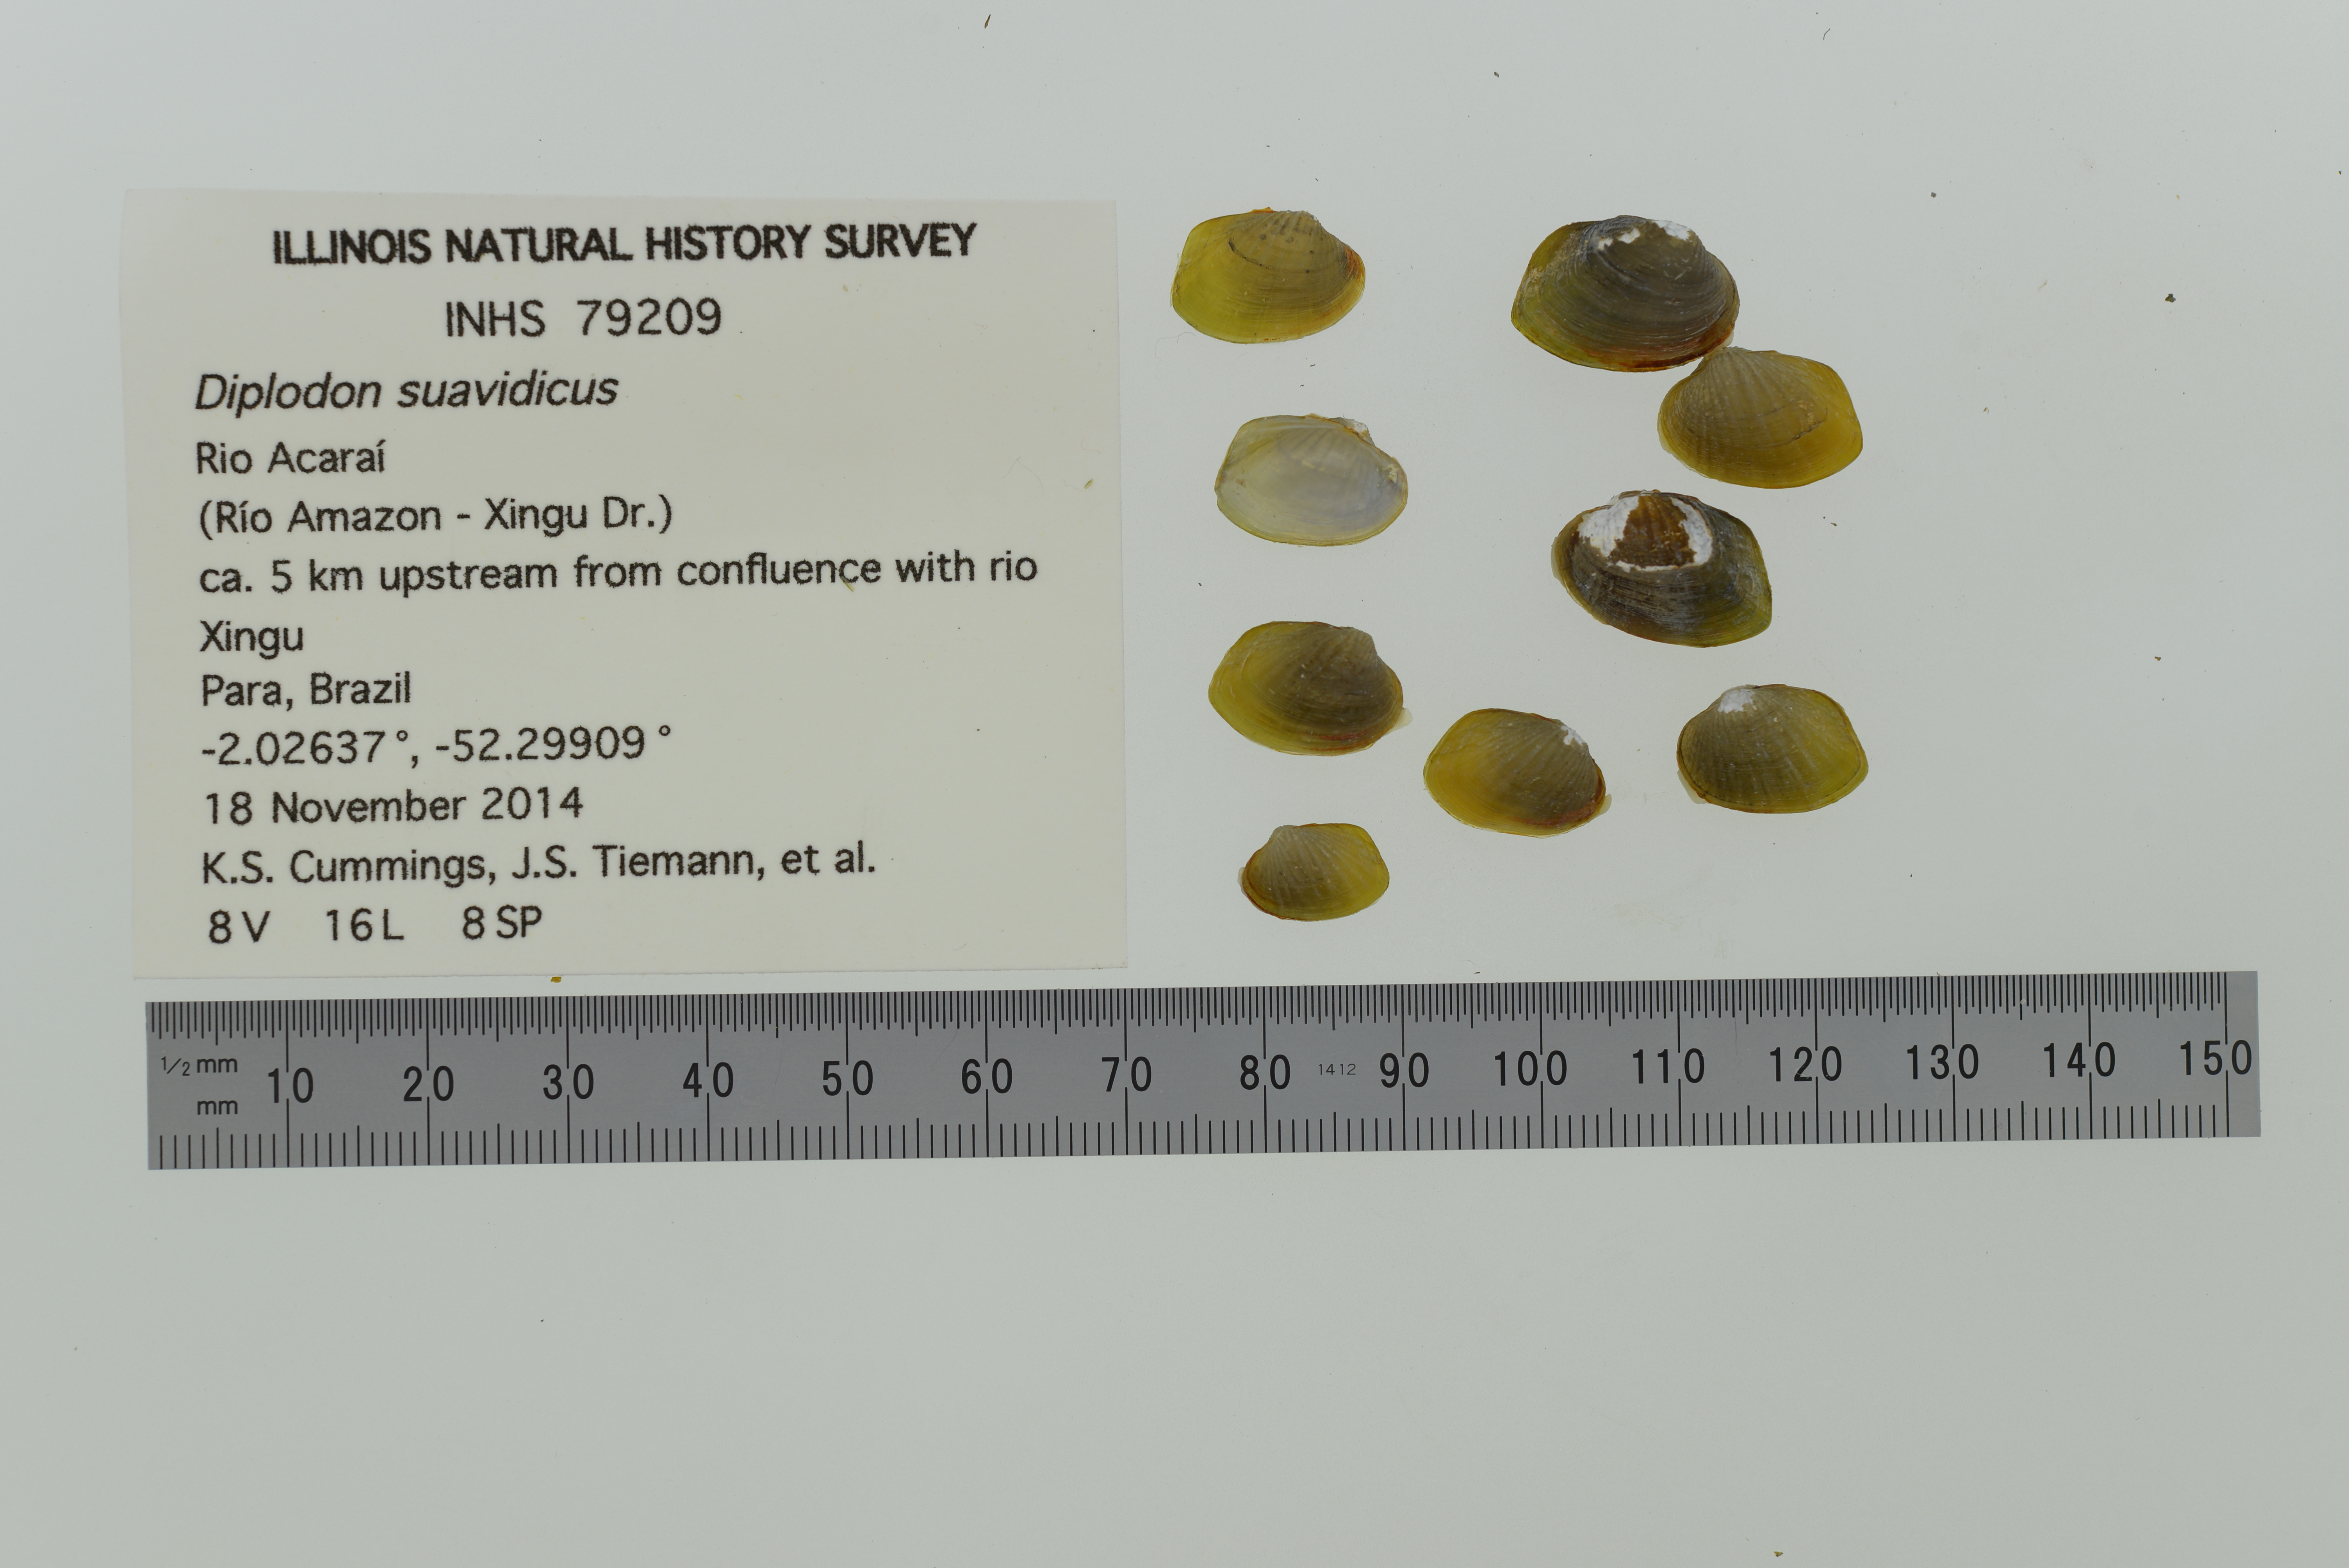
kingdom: Animalia
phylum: Mollusca
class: Bivalvia
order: Unionida
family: Hyriidae
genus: Diplodon
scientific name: Diplodon suavidicus
